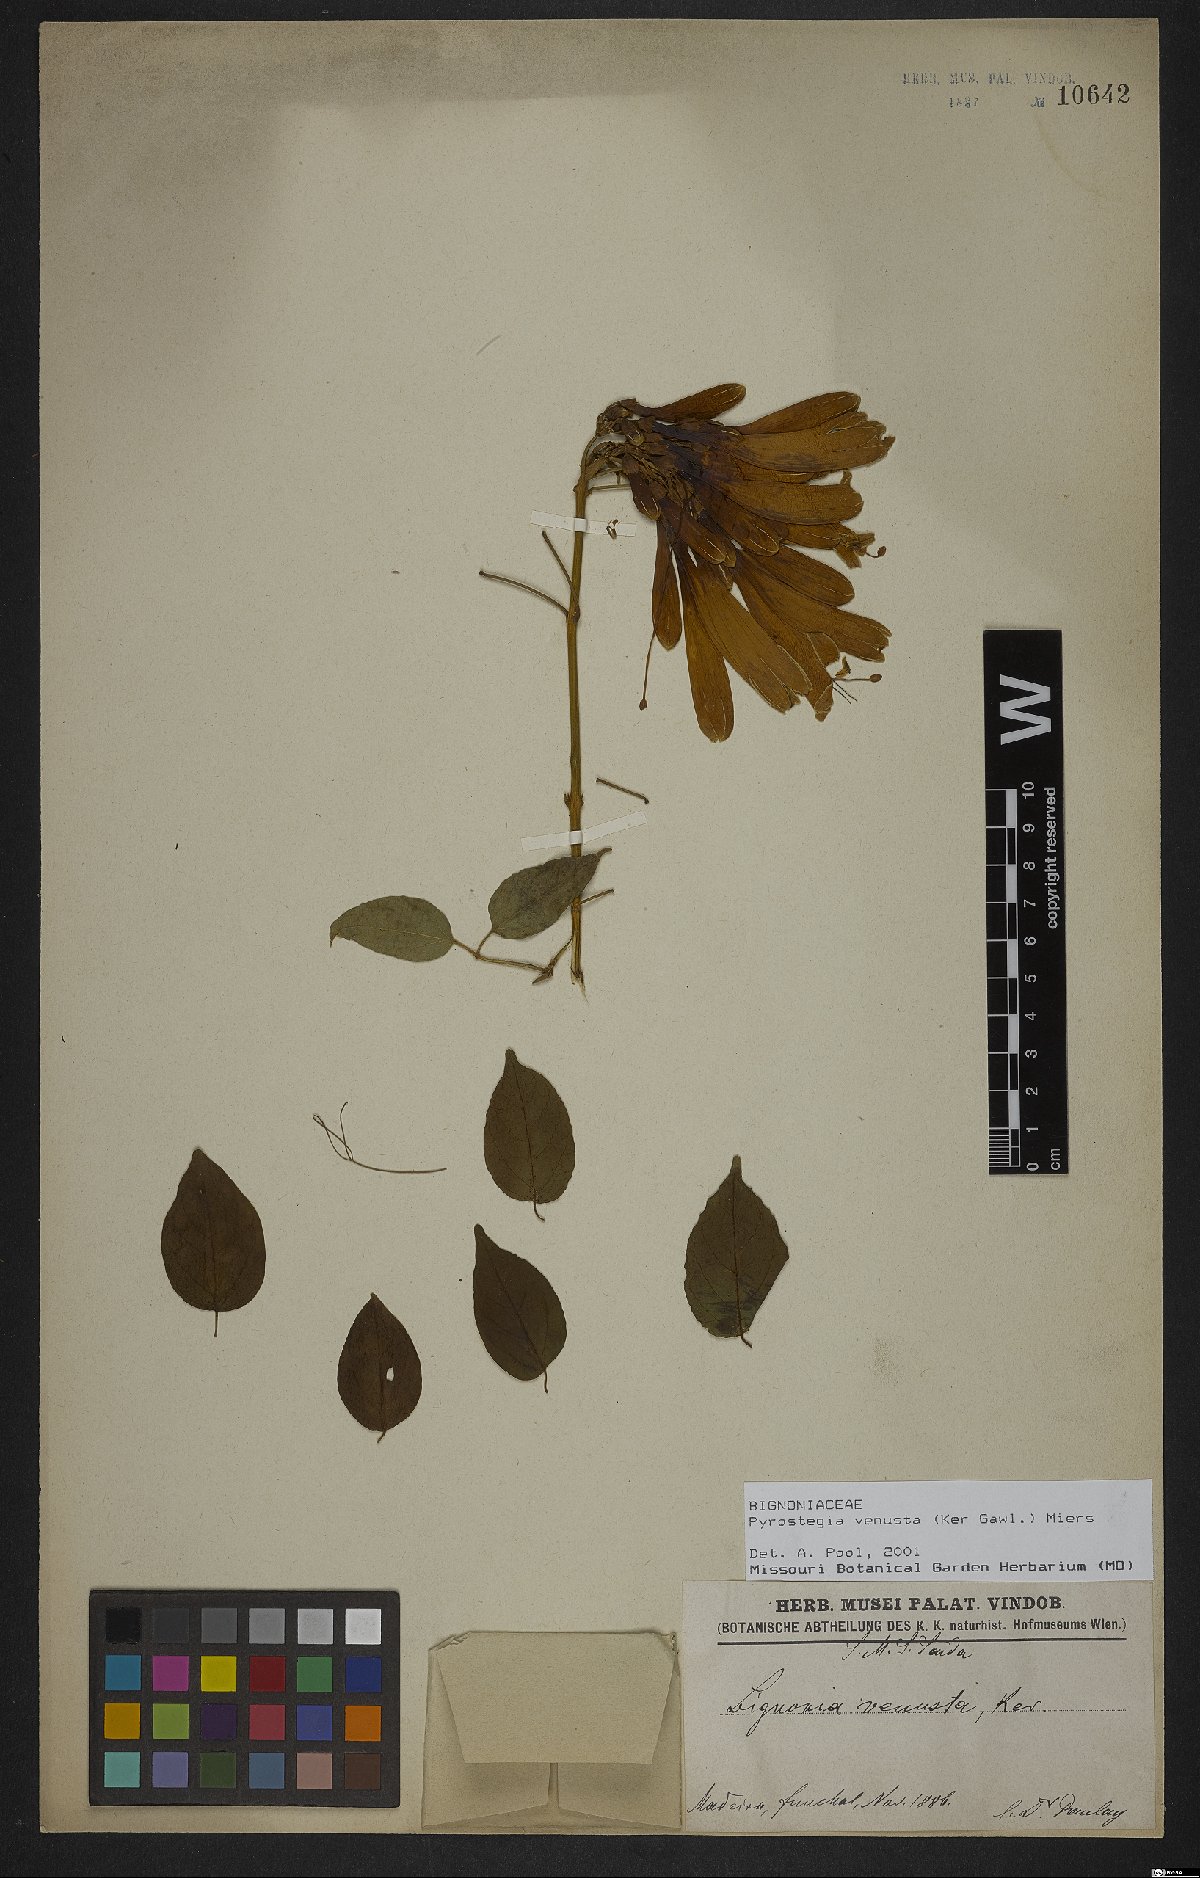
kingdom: Plantae
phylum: Tracheophyta
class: Magnoliopsida
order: Lamiales
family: Bignoniaceae
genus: Pyrostegia
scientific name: Pyrostegia venusta
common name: Flamevine
